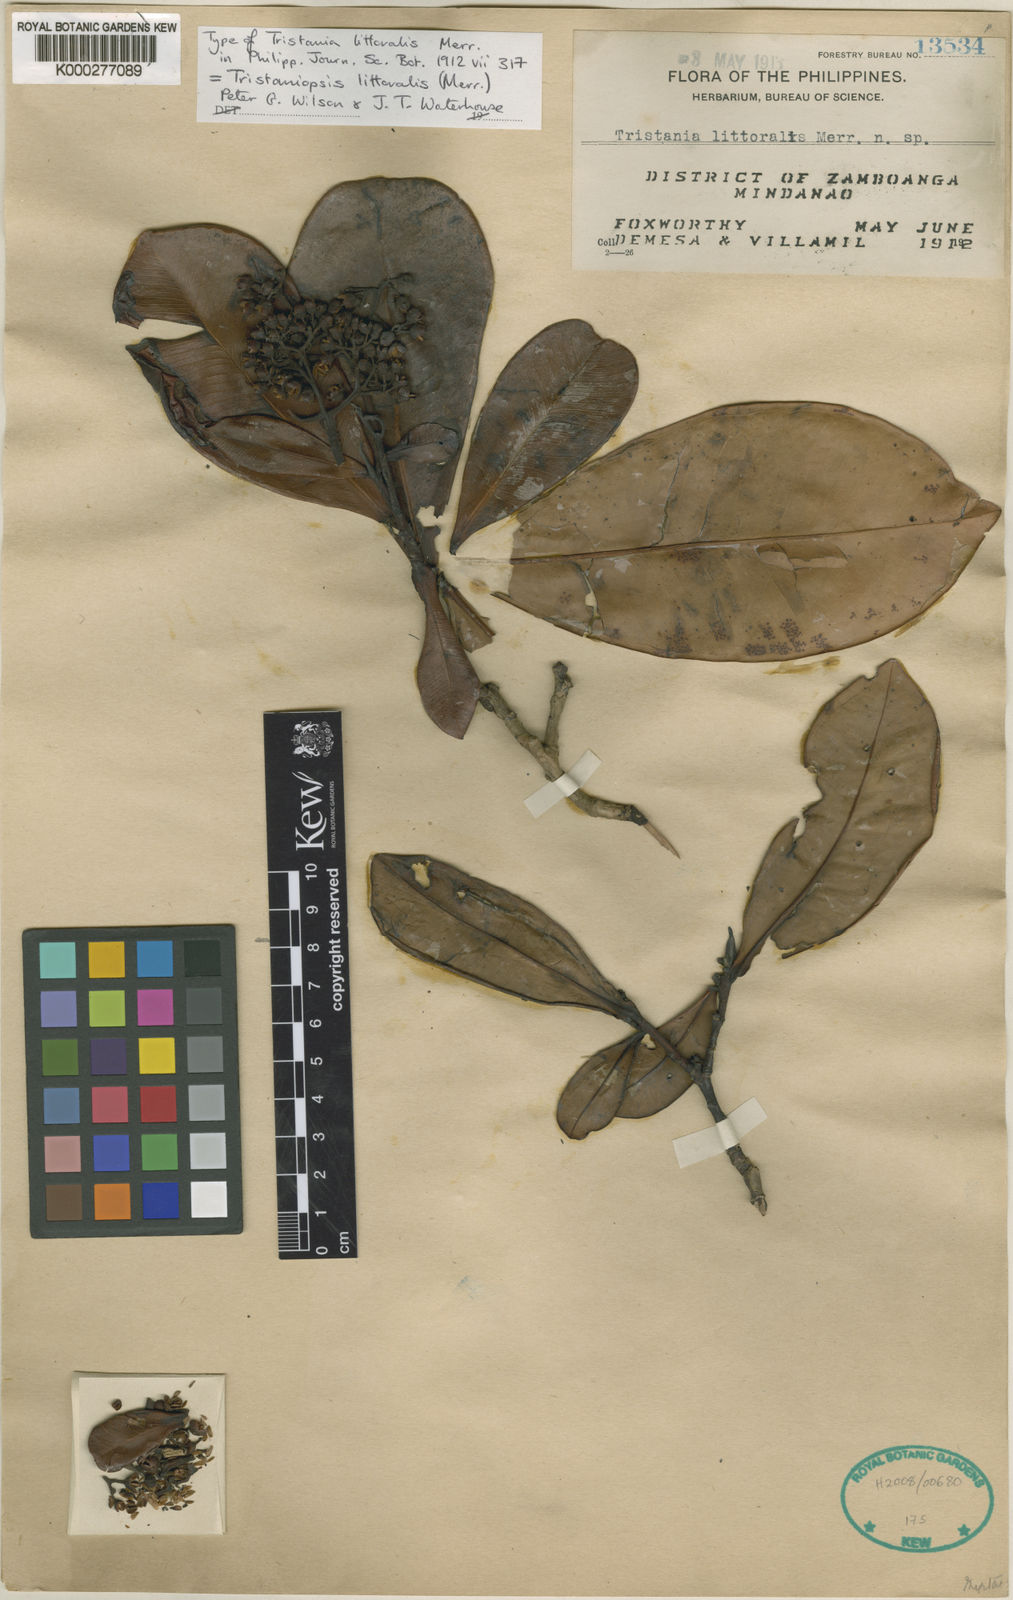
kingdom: Plantae
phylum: Tracheophyta
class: Magnoliopsida
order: Myrtales
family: Myrtaceae
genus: Tristaniopsis
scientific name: Tristaniopsis littoralis
